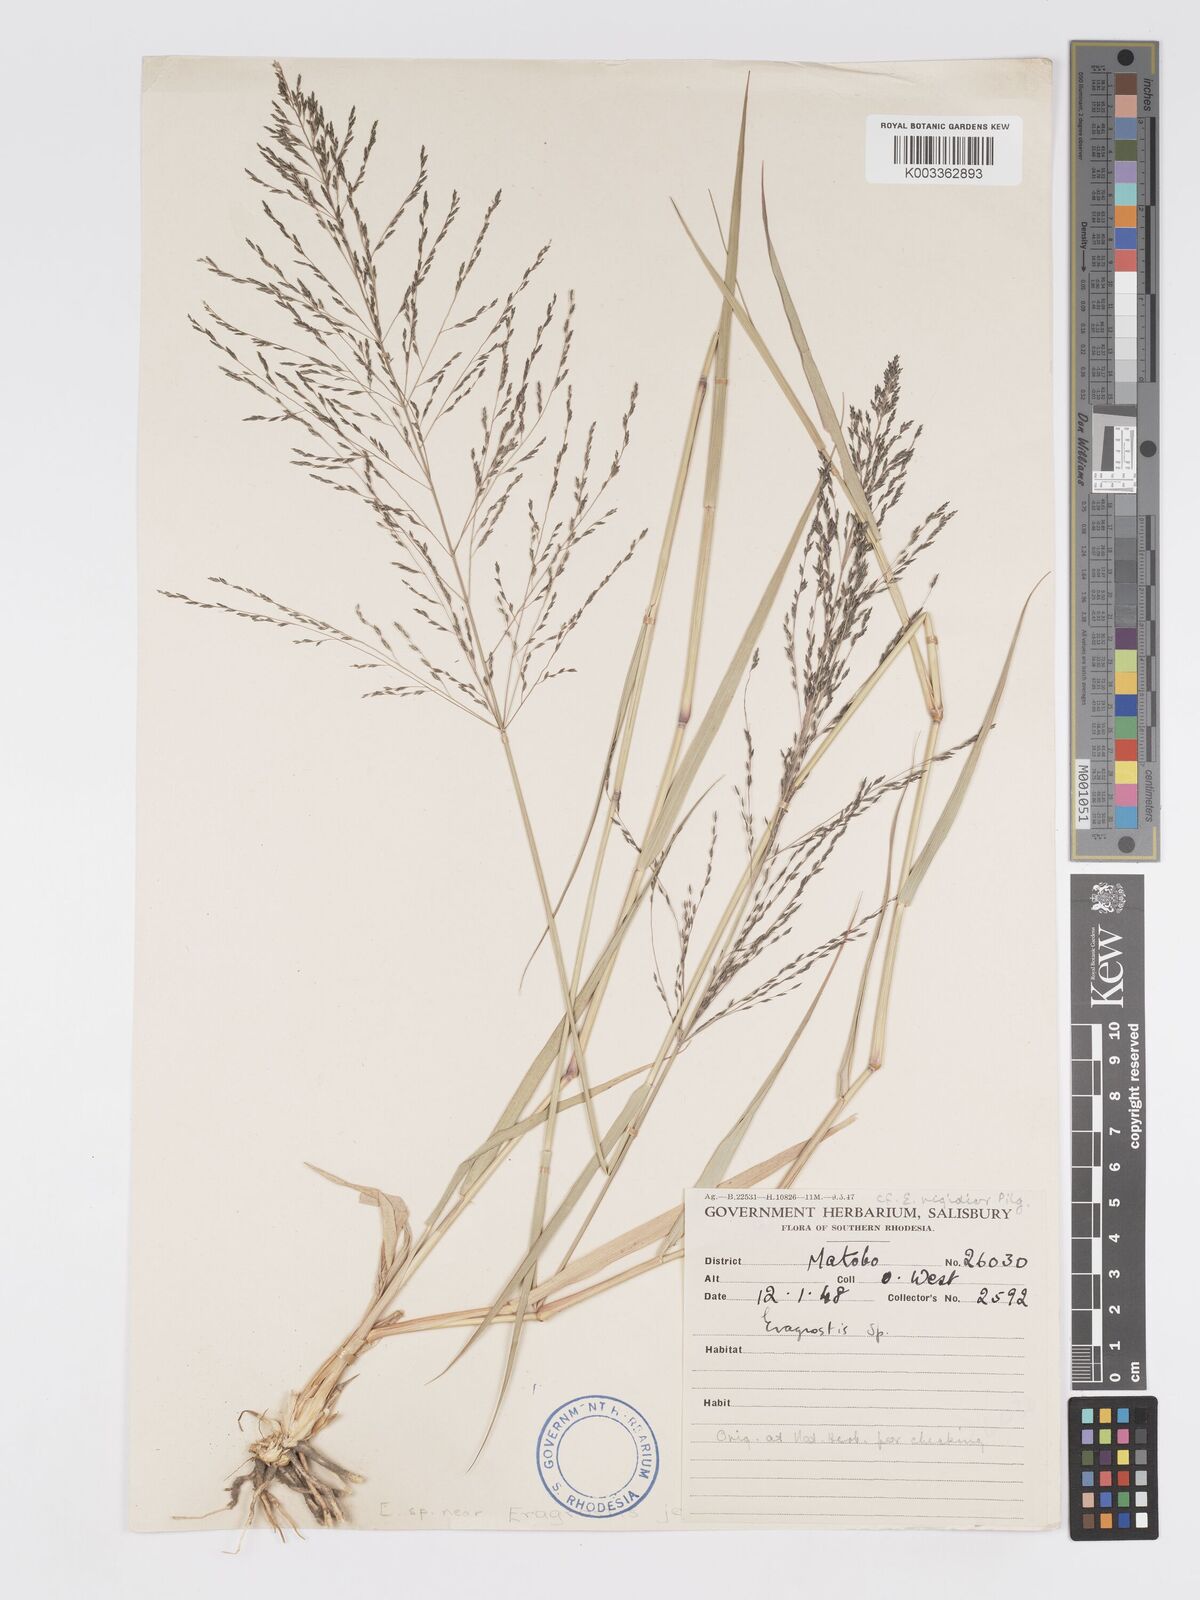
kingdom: Plantae
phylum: Tracheophyta
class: Liliopsida
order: Poales
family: Poaceae
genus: Eragrostis
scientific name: Eragrostis cylindriflora
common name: Cylinderflower lovegrass
